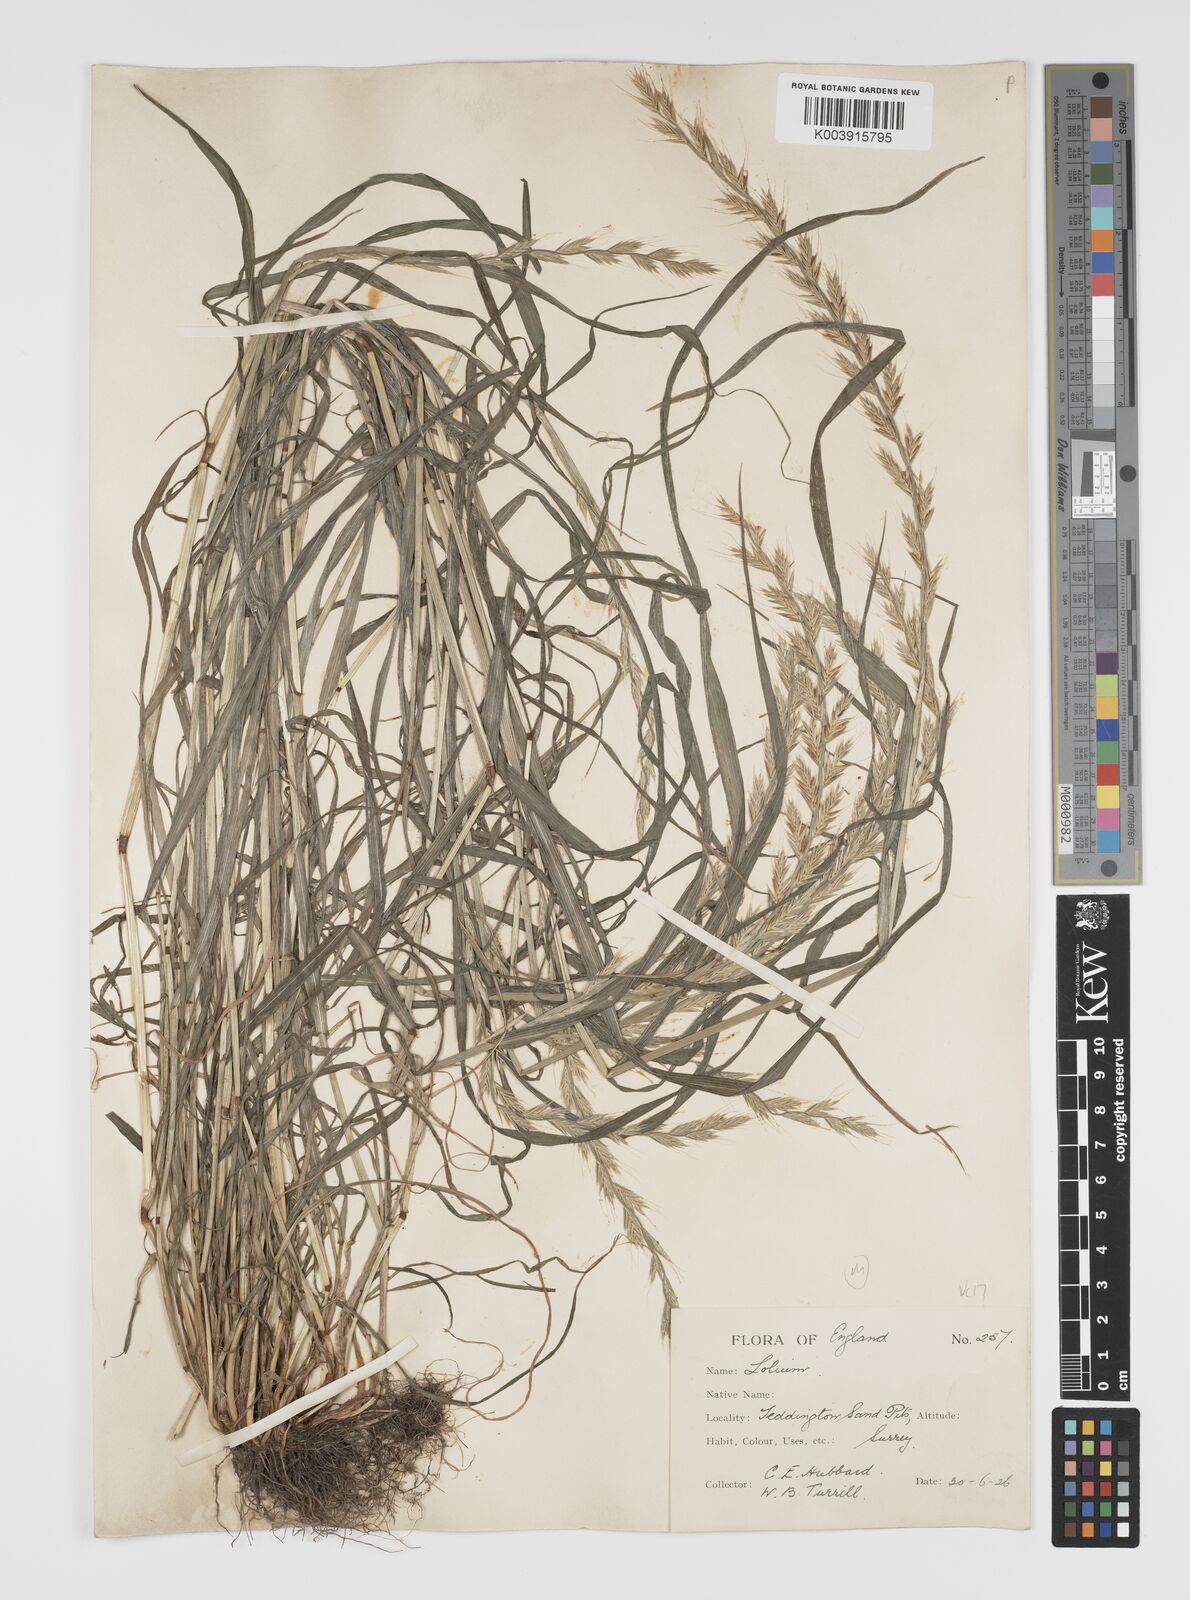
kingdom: Plantae
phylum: Tracheophyta
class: Liliopsida
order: Poales
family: Poaceae
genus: Lolium
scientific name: Lolium multiflorum
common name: Annual ryegrass
